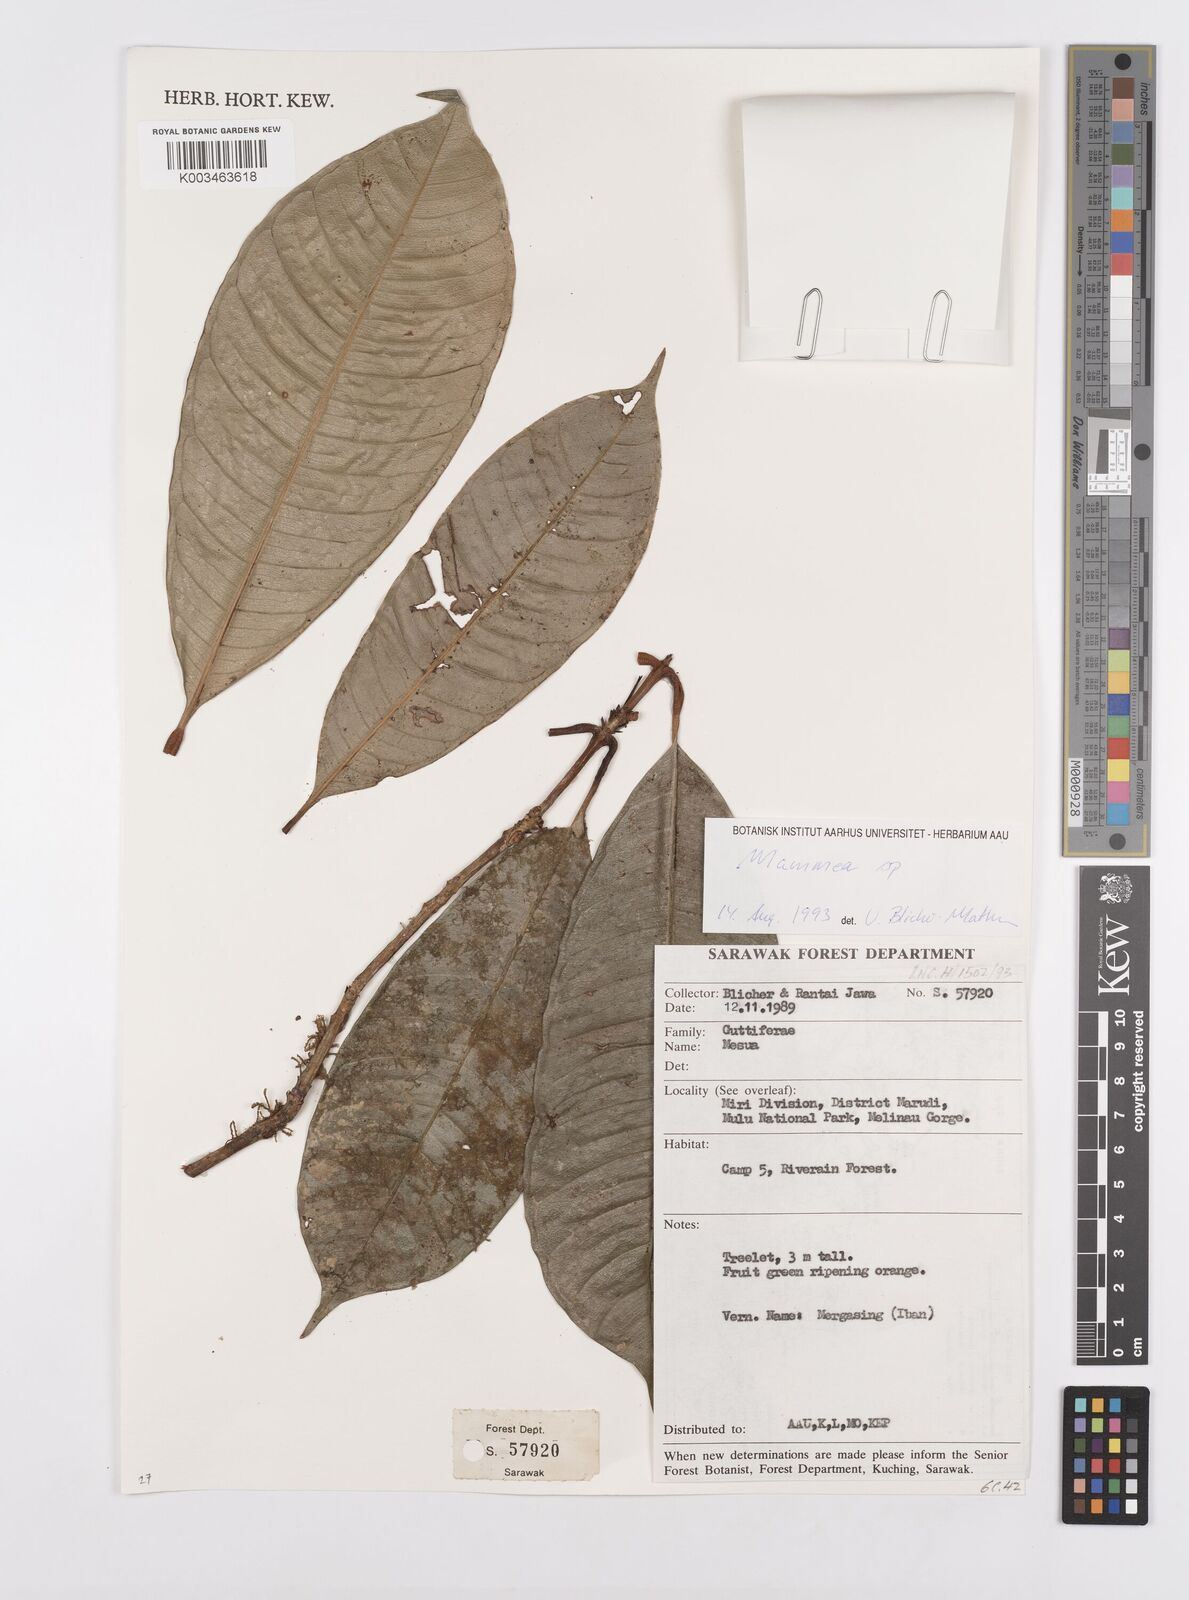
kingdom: Plantae
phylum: Tracheophyta
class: Magnoliopsida
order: Malpighiales
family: Calophyllaceae
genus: Mammea
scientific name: Mammea
